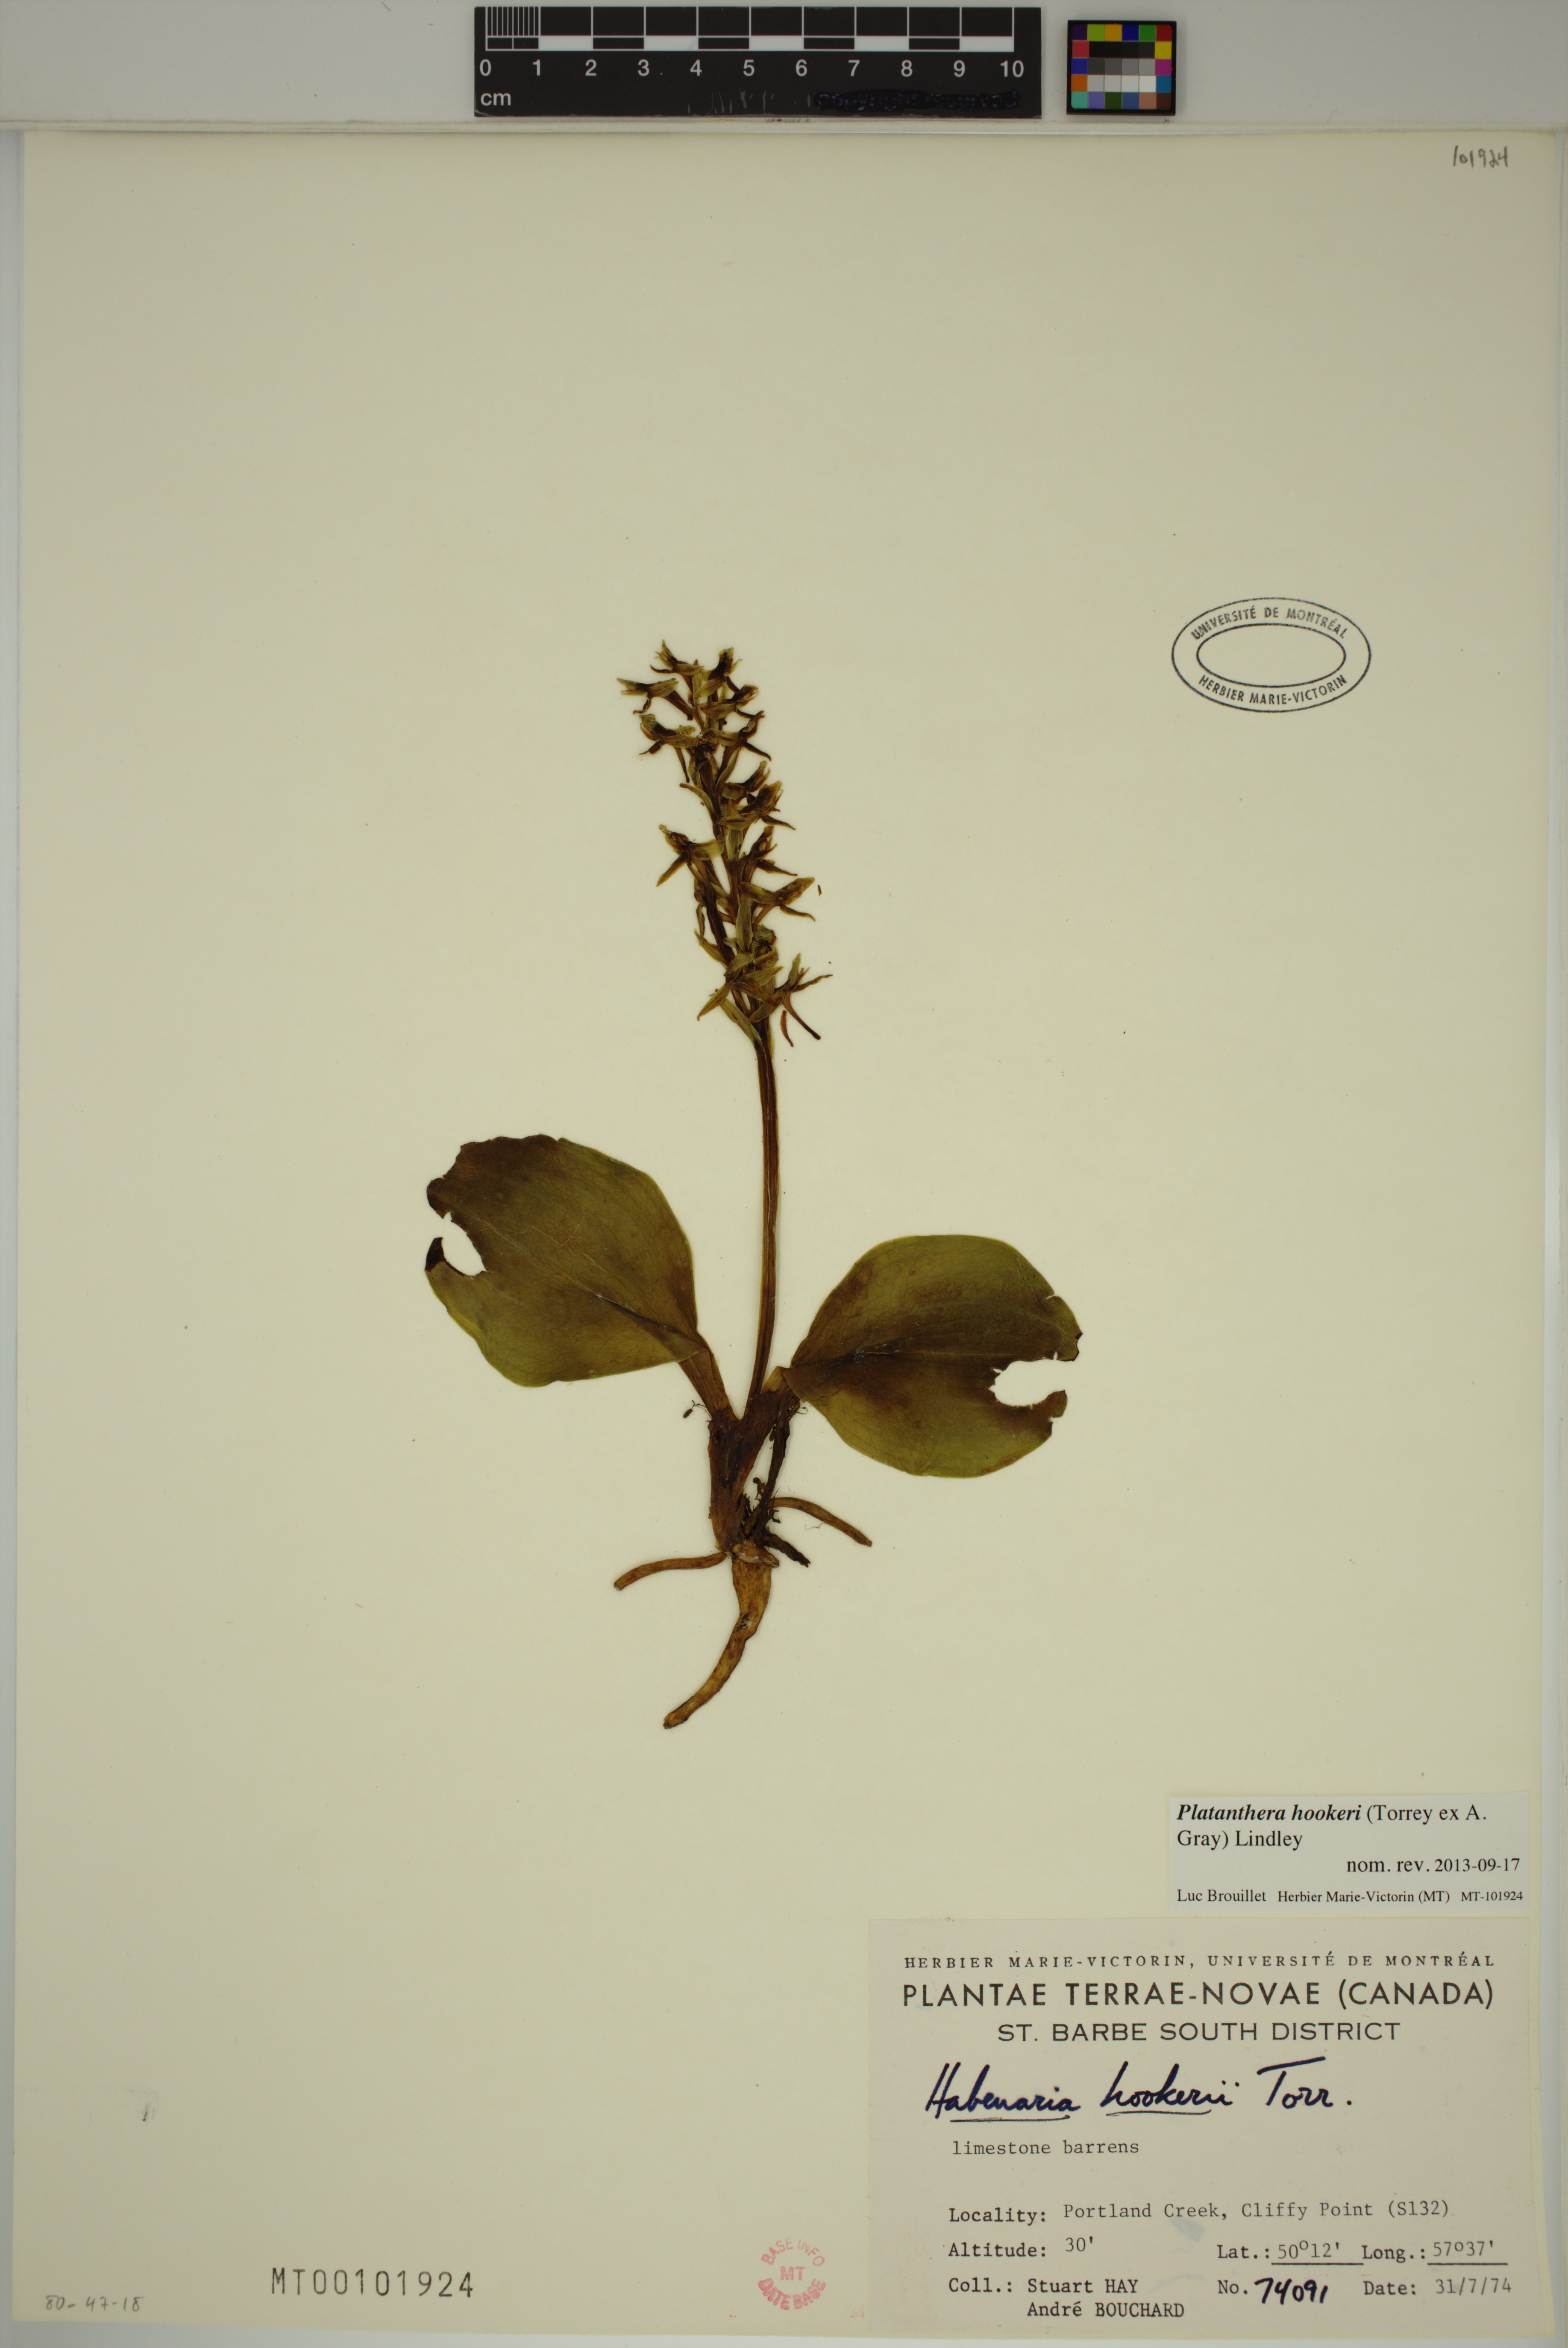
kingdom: Plantae
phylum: Tracheophyta
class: Liliopsida
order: Asparagales
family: Orchidaceae
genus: Platanthera
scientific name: Platanthera hookeri
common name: Hooker's orchid
